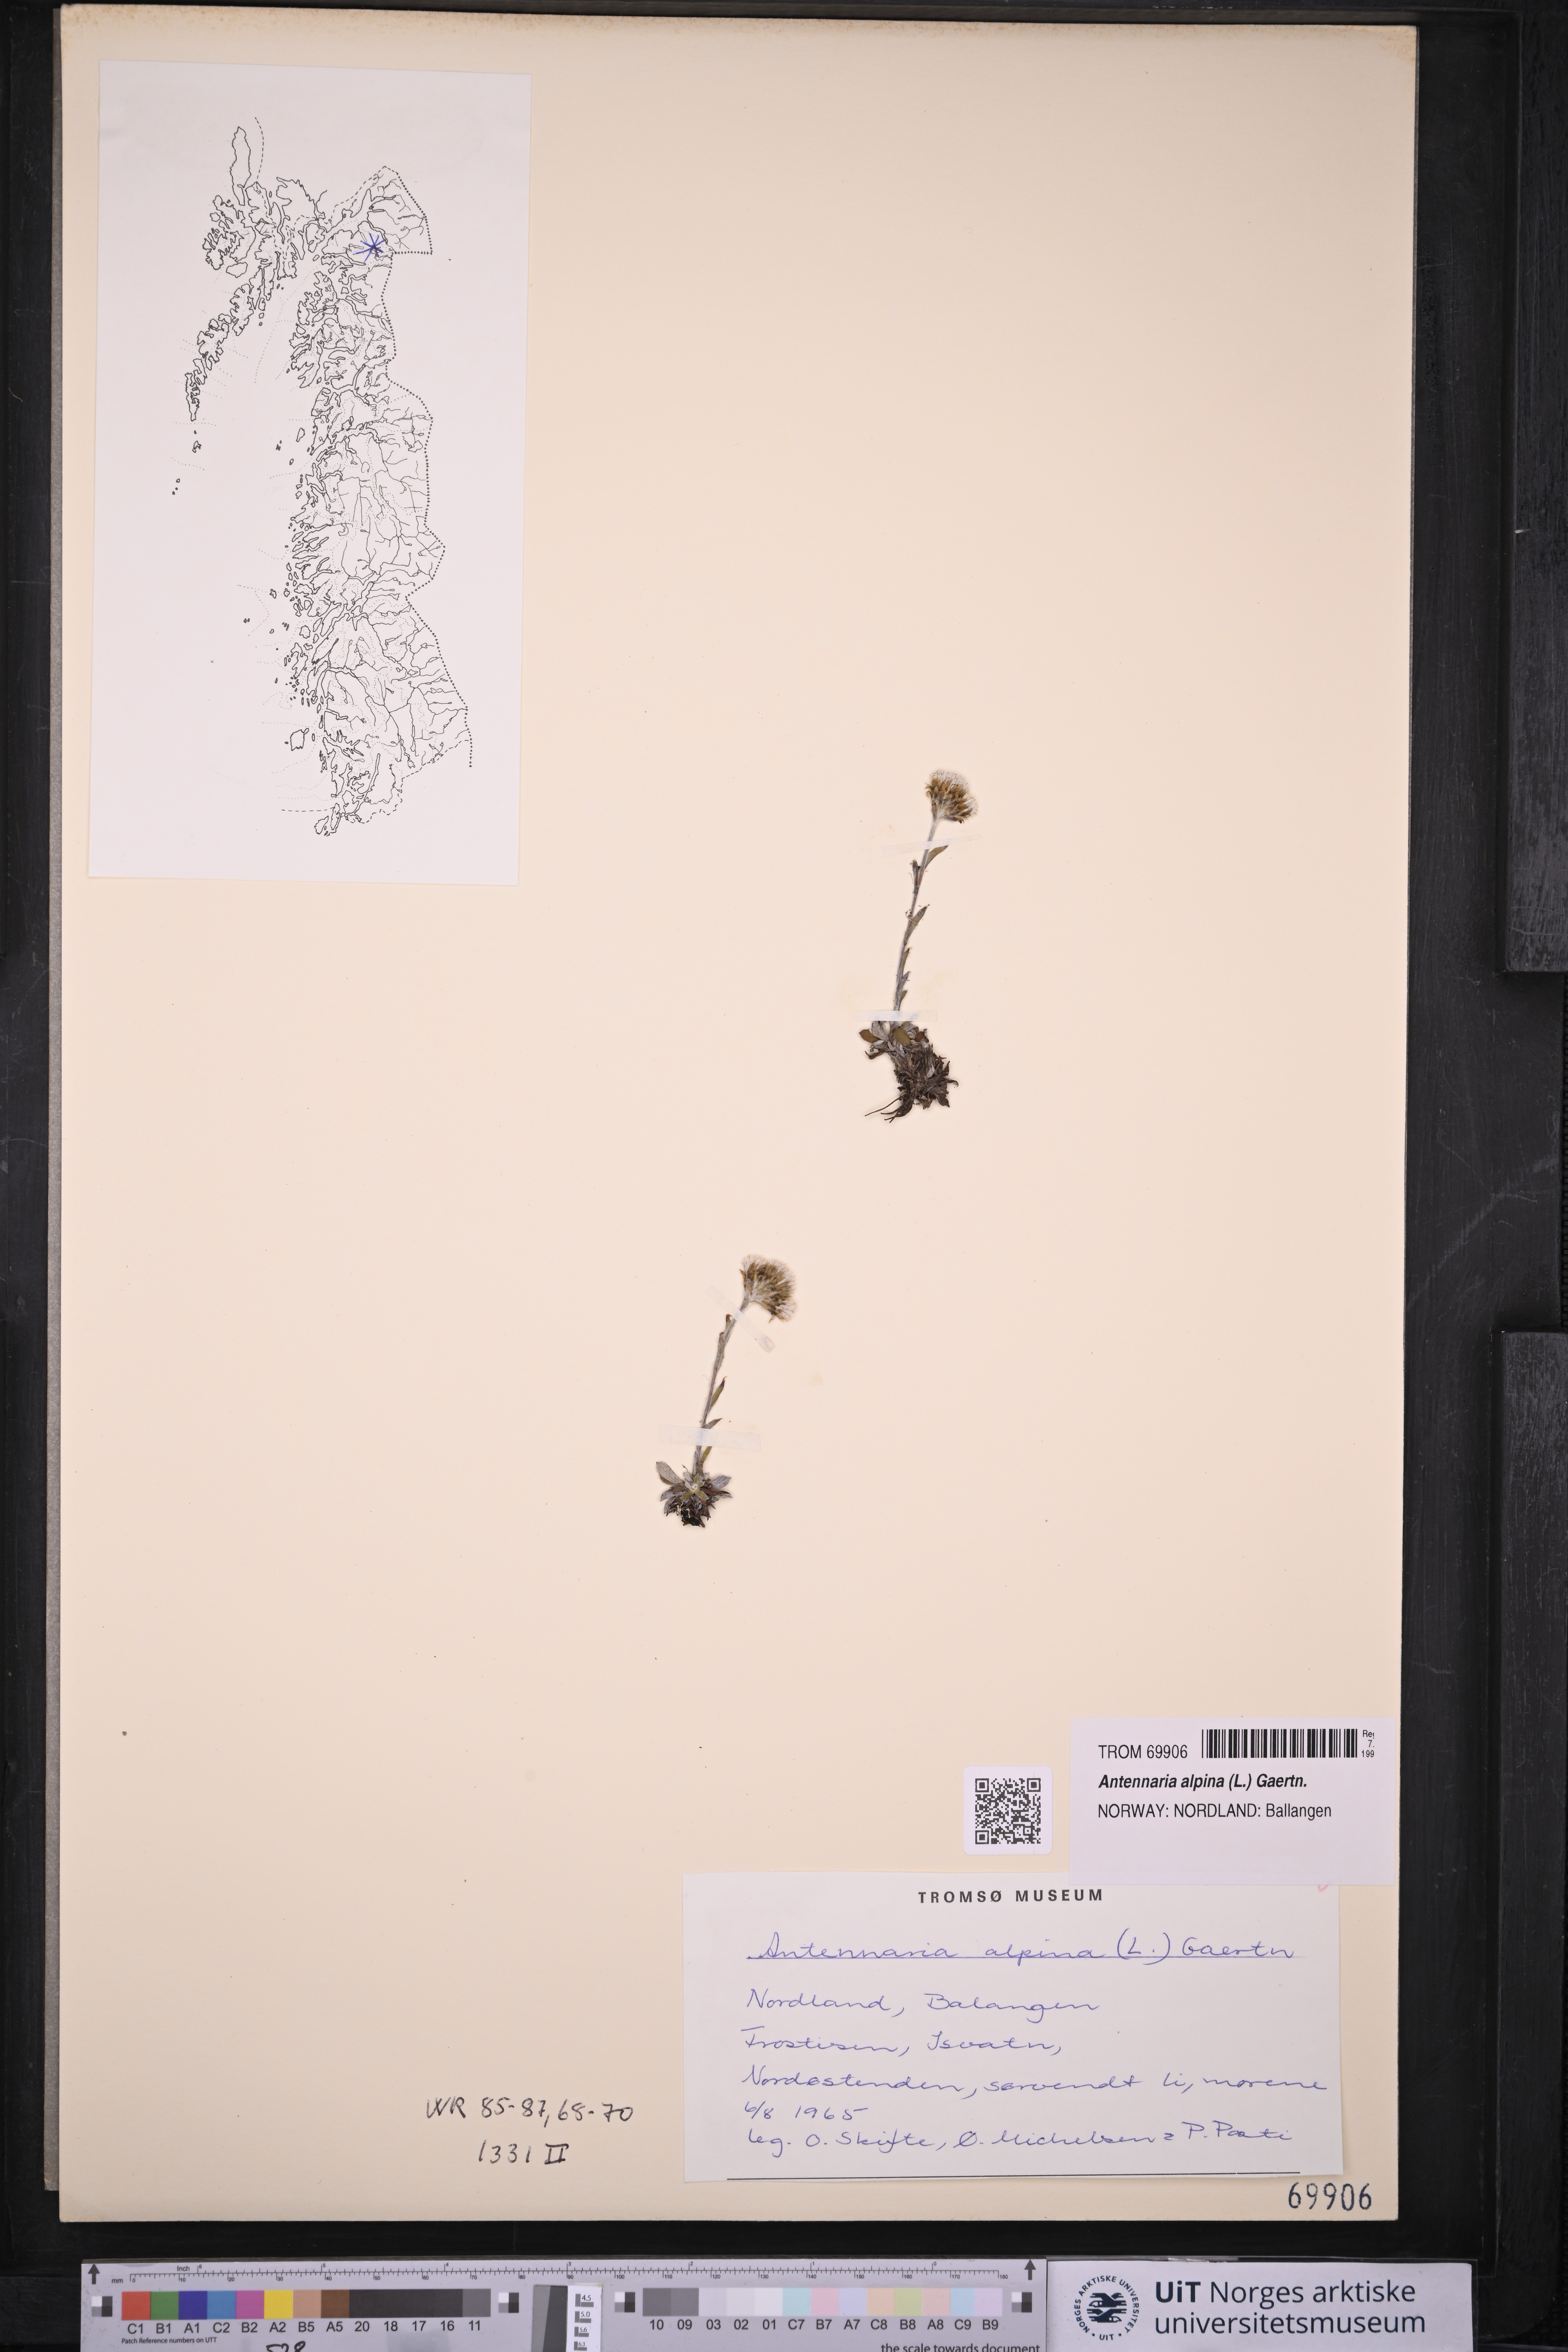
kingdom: Plantae
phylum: Tracheophyta
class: Magnoliopsida
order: Asterales
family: Asteraceae
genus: Antennaria
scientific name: Antennaria alpina
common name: Alpine pussytoes
